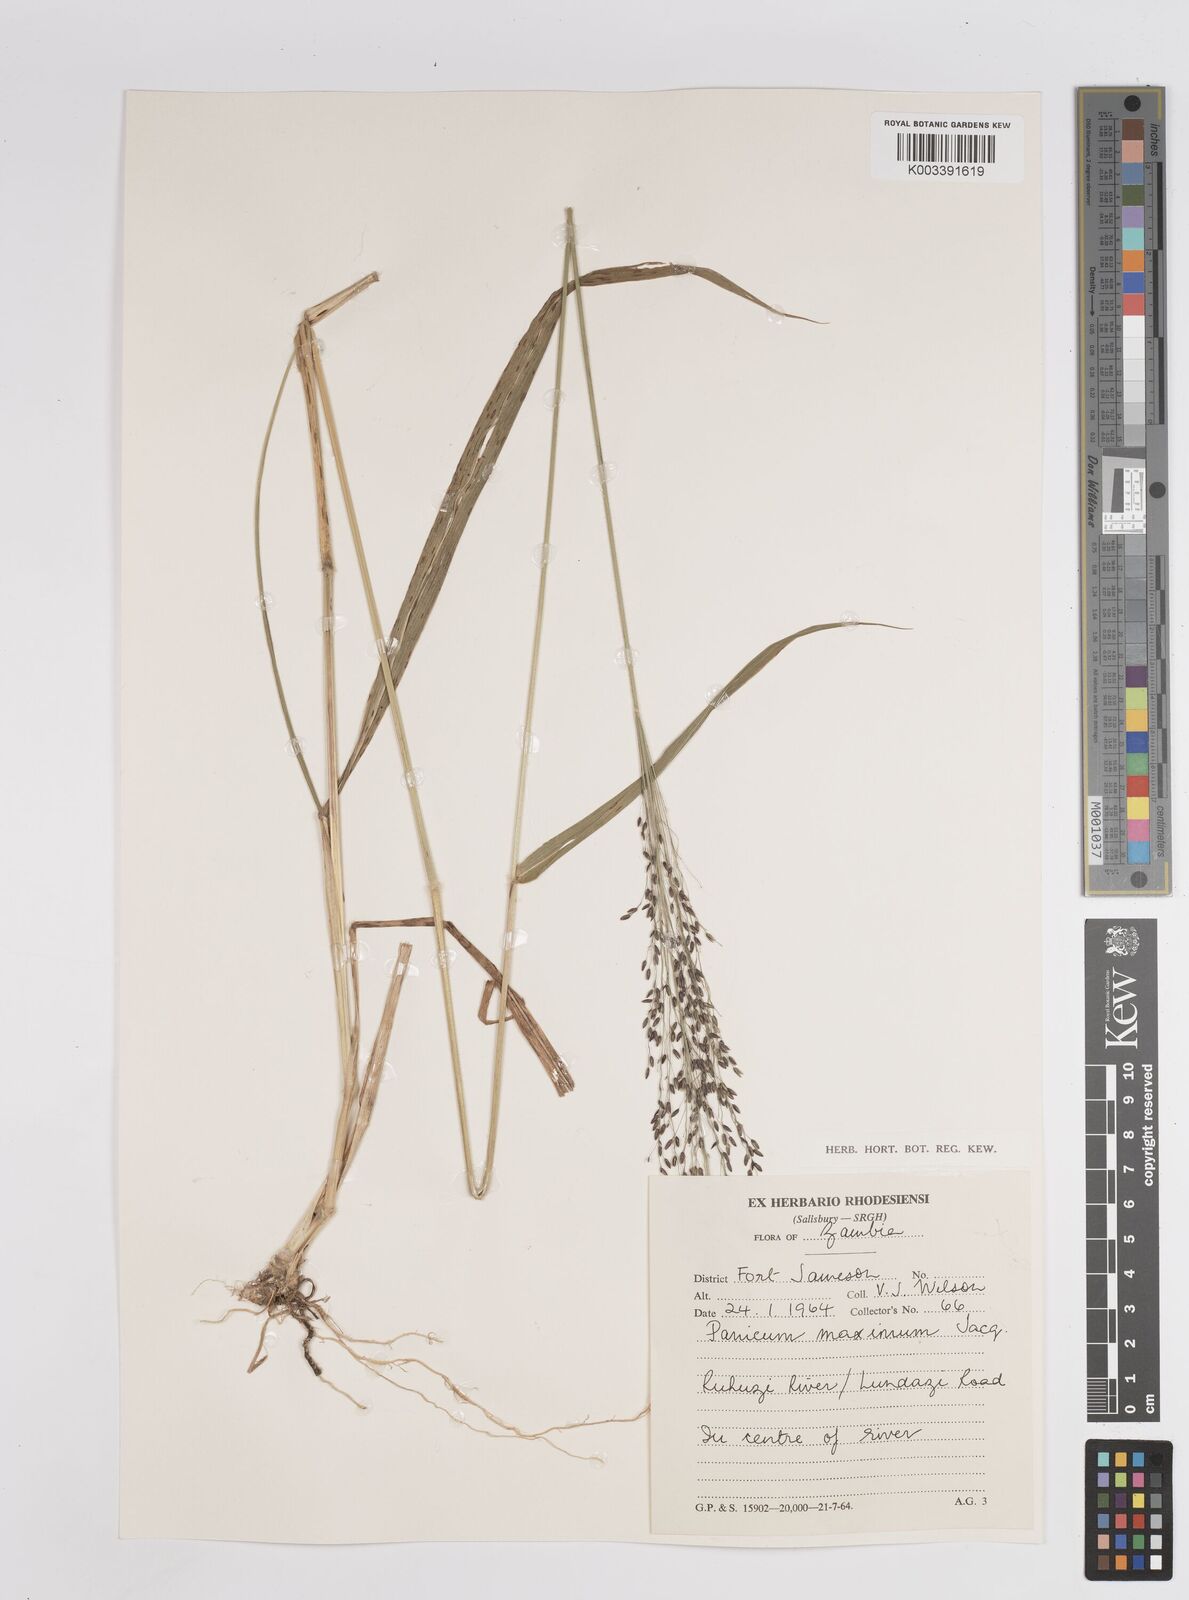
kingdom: Plantae
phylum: Tracheophyta
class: Liliopsida
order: Poales
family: Poaceae
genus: Megathyrsus
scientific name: Megathyrsus maximus
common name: Guineagrass
